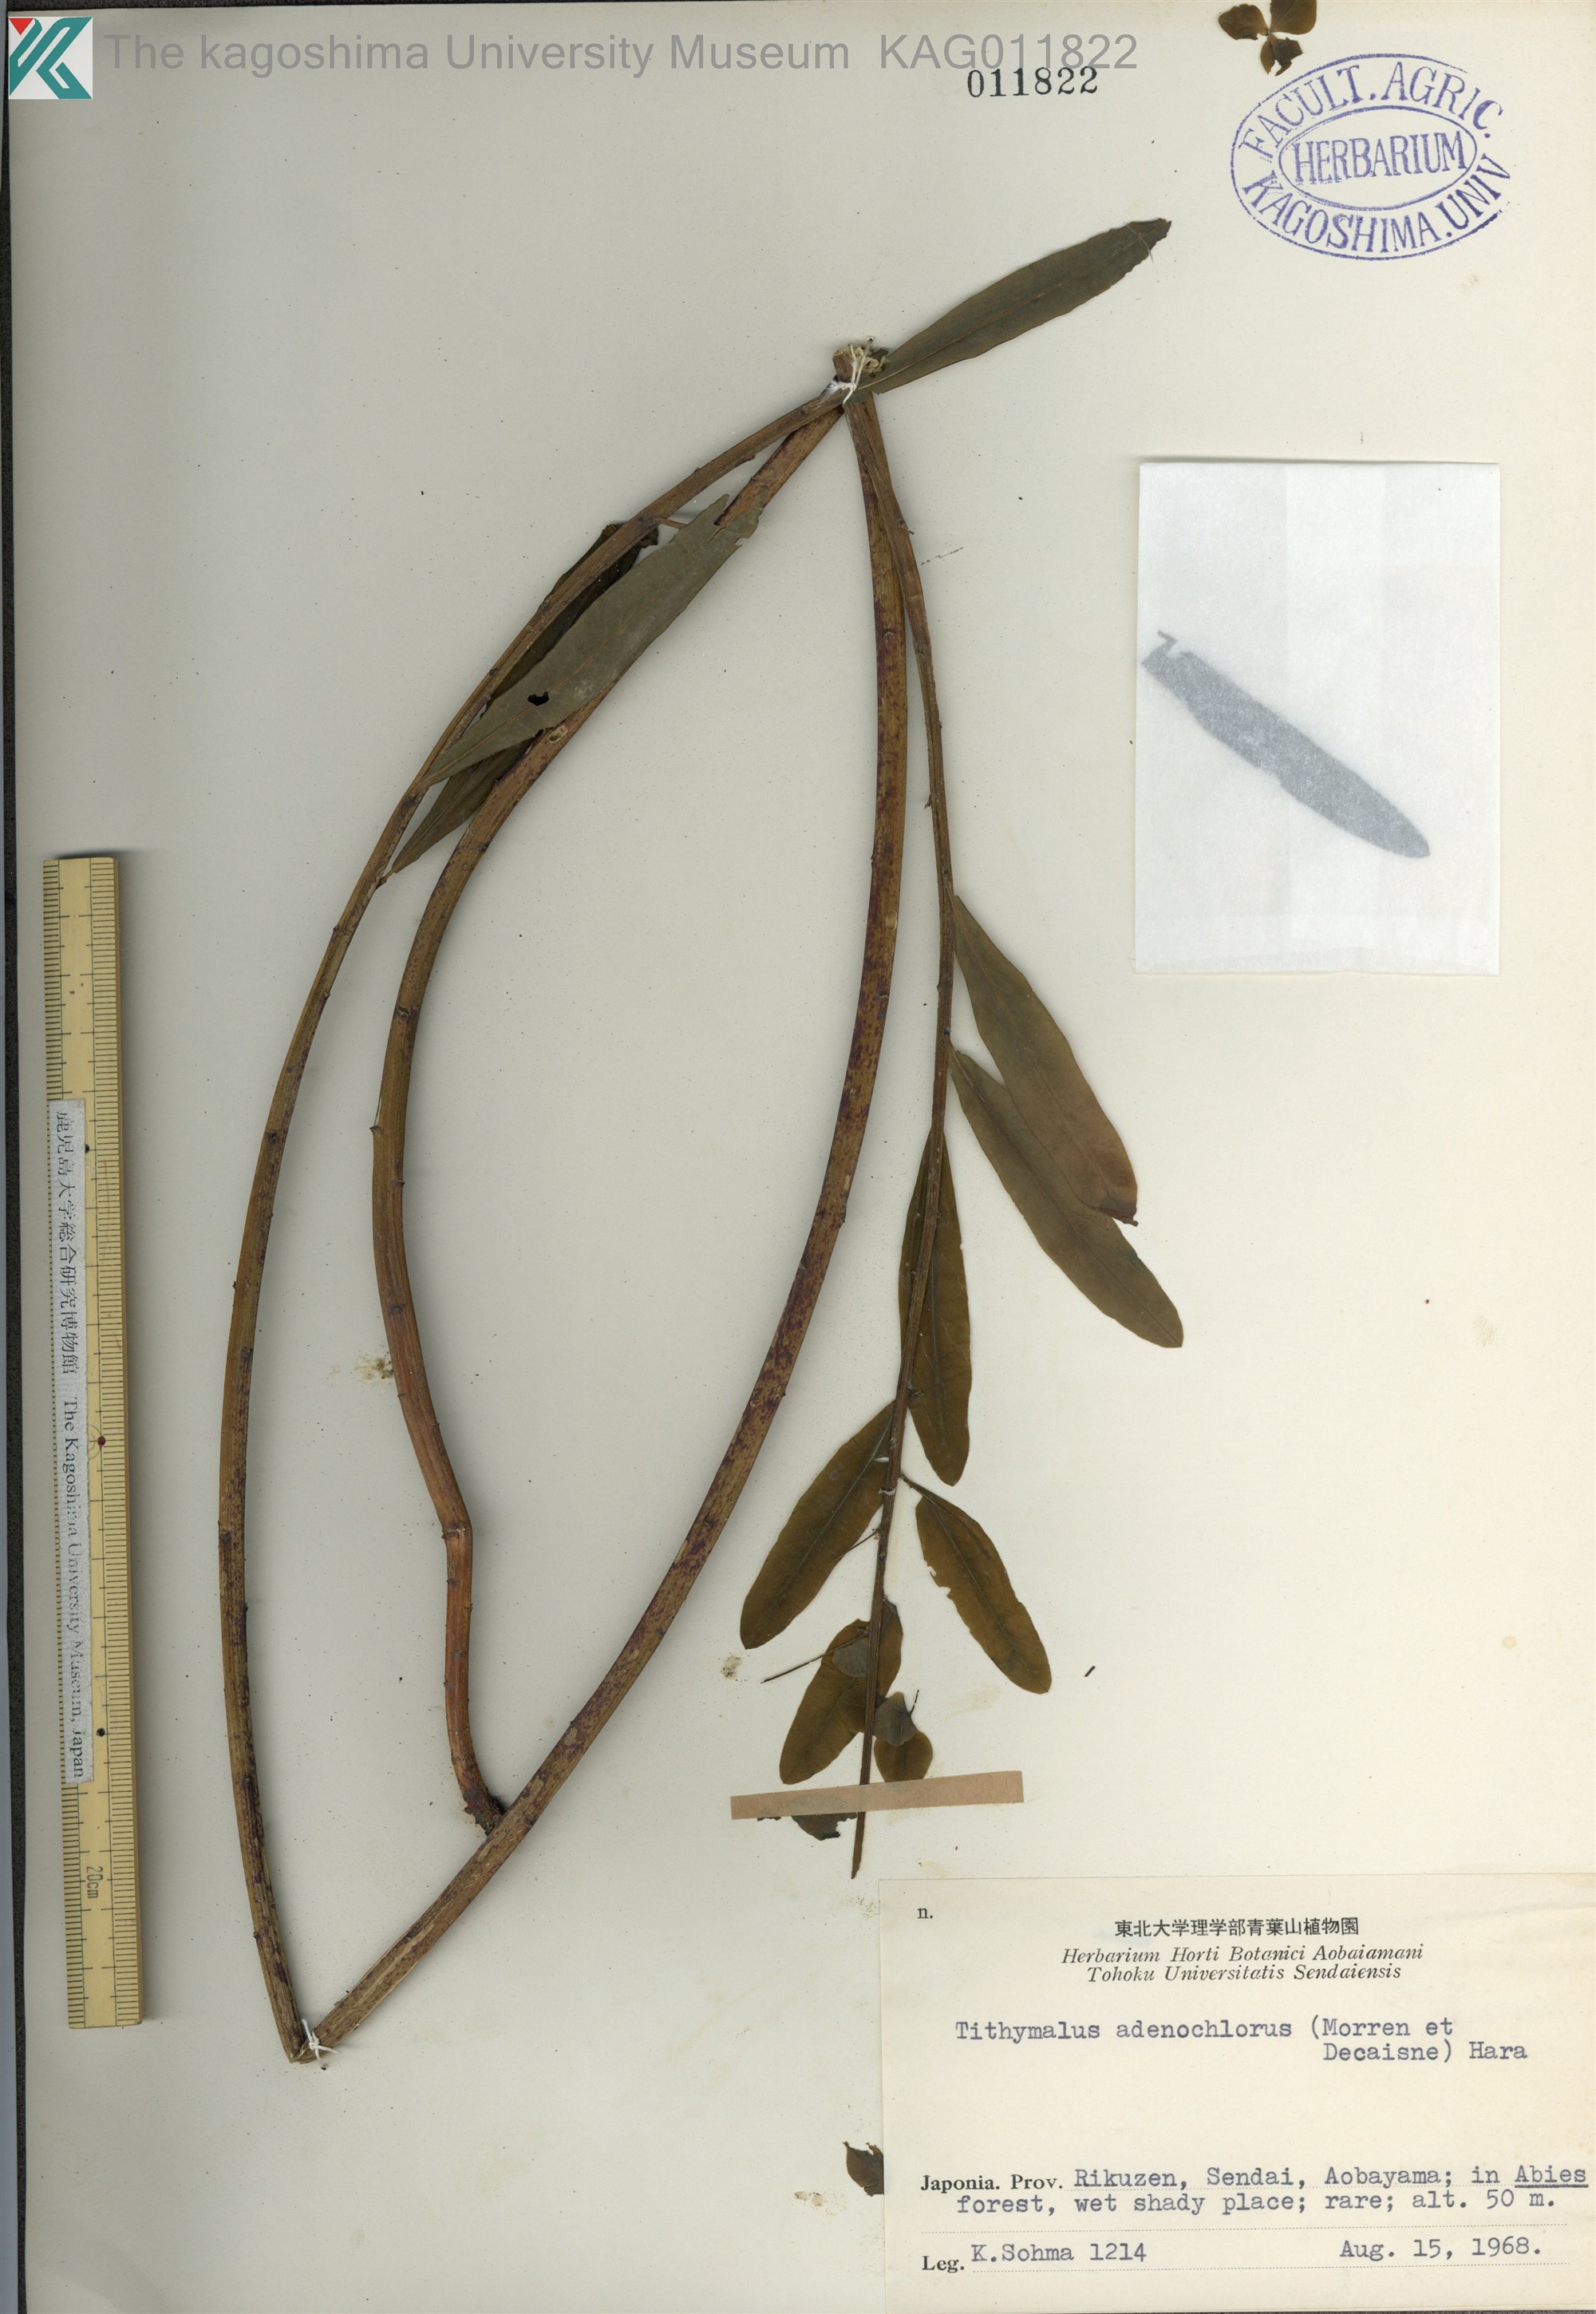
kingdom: Plantae
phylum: Tracheophyta
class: Magnoliopsida
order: Malpighiales
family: Euphorbiaceae
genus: Euphorbia
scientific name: Euphorbia adenochlora
